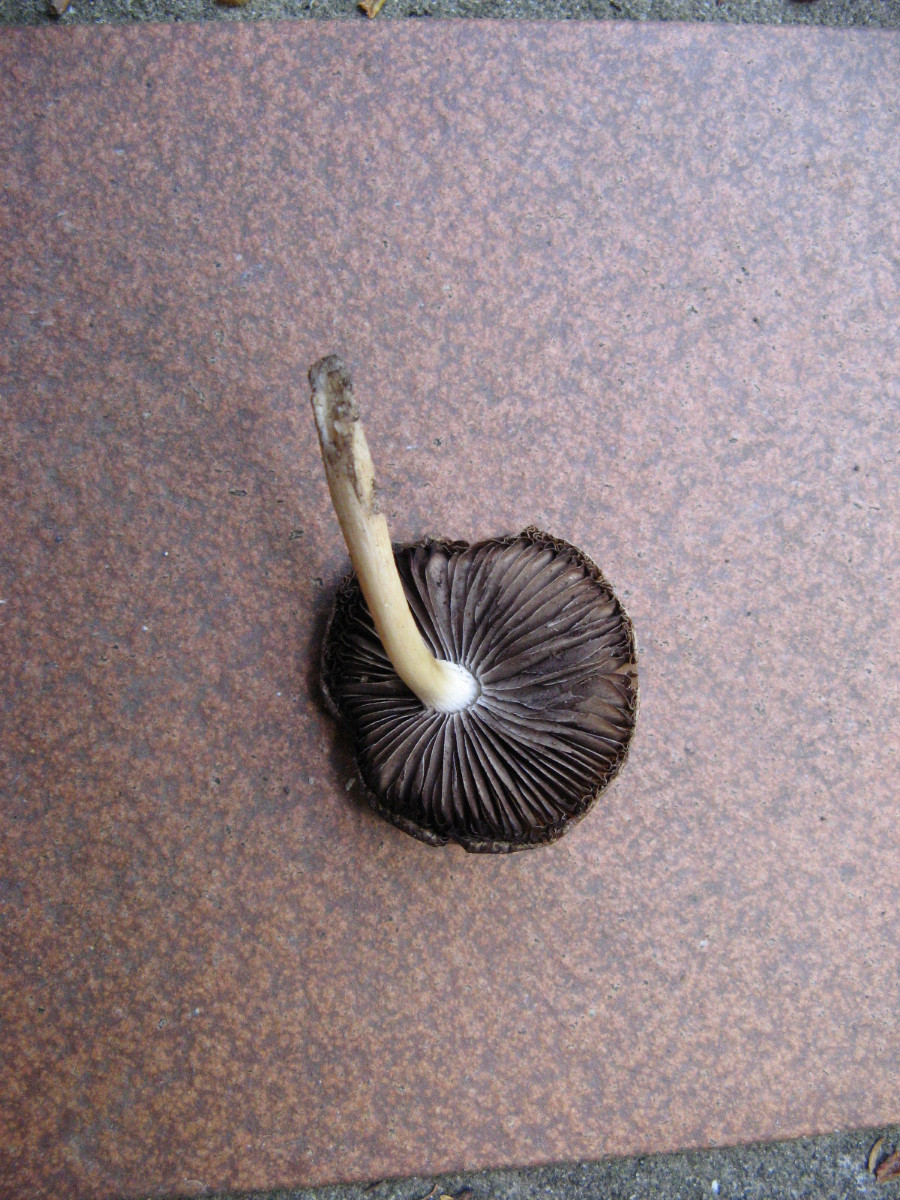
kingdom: Fungi
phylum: Basidiomycota
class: Agaricomycetes
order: Agaricales
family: Psathyrellaceae
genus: Typhrasa
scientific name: Typhrasa
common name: mørkhat
